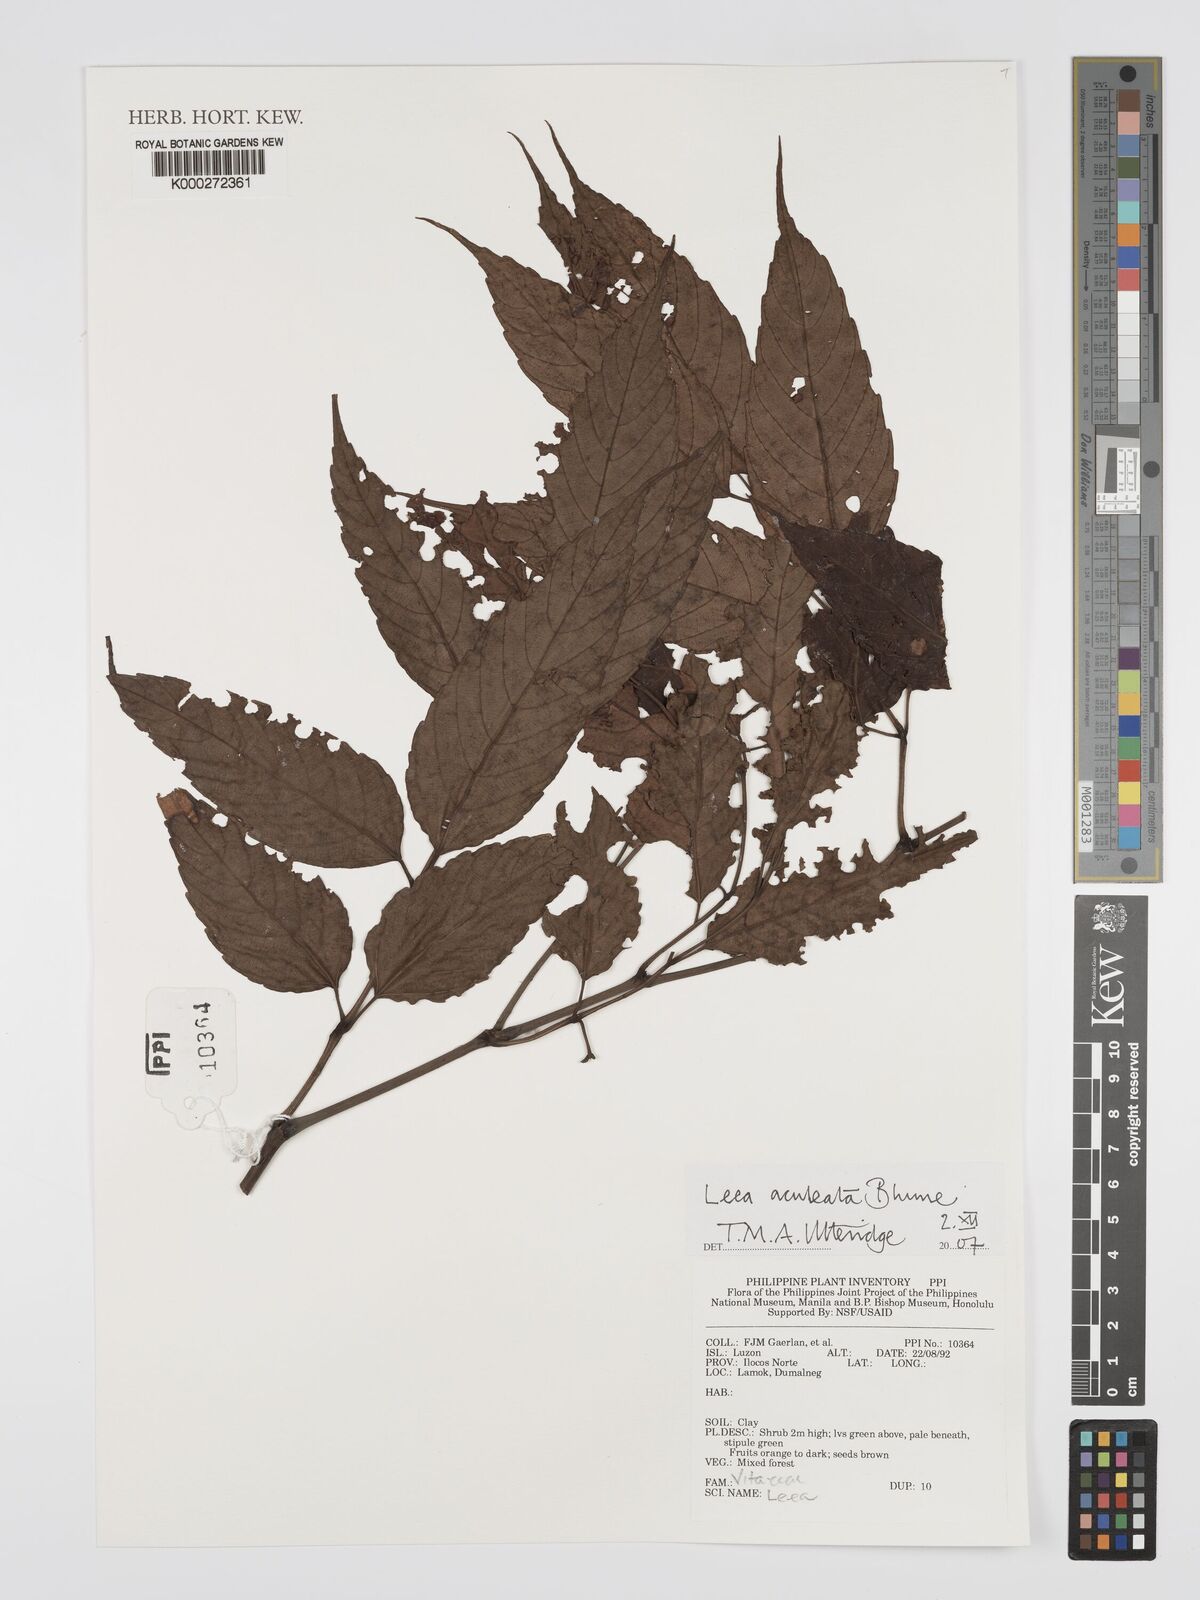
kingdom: Plantae
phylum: Tracheophyta
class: Magnoliopsida
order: Vitales
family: Vitaceae
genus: Leea
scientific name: Leea aculeata
